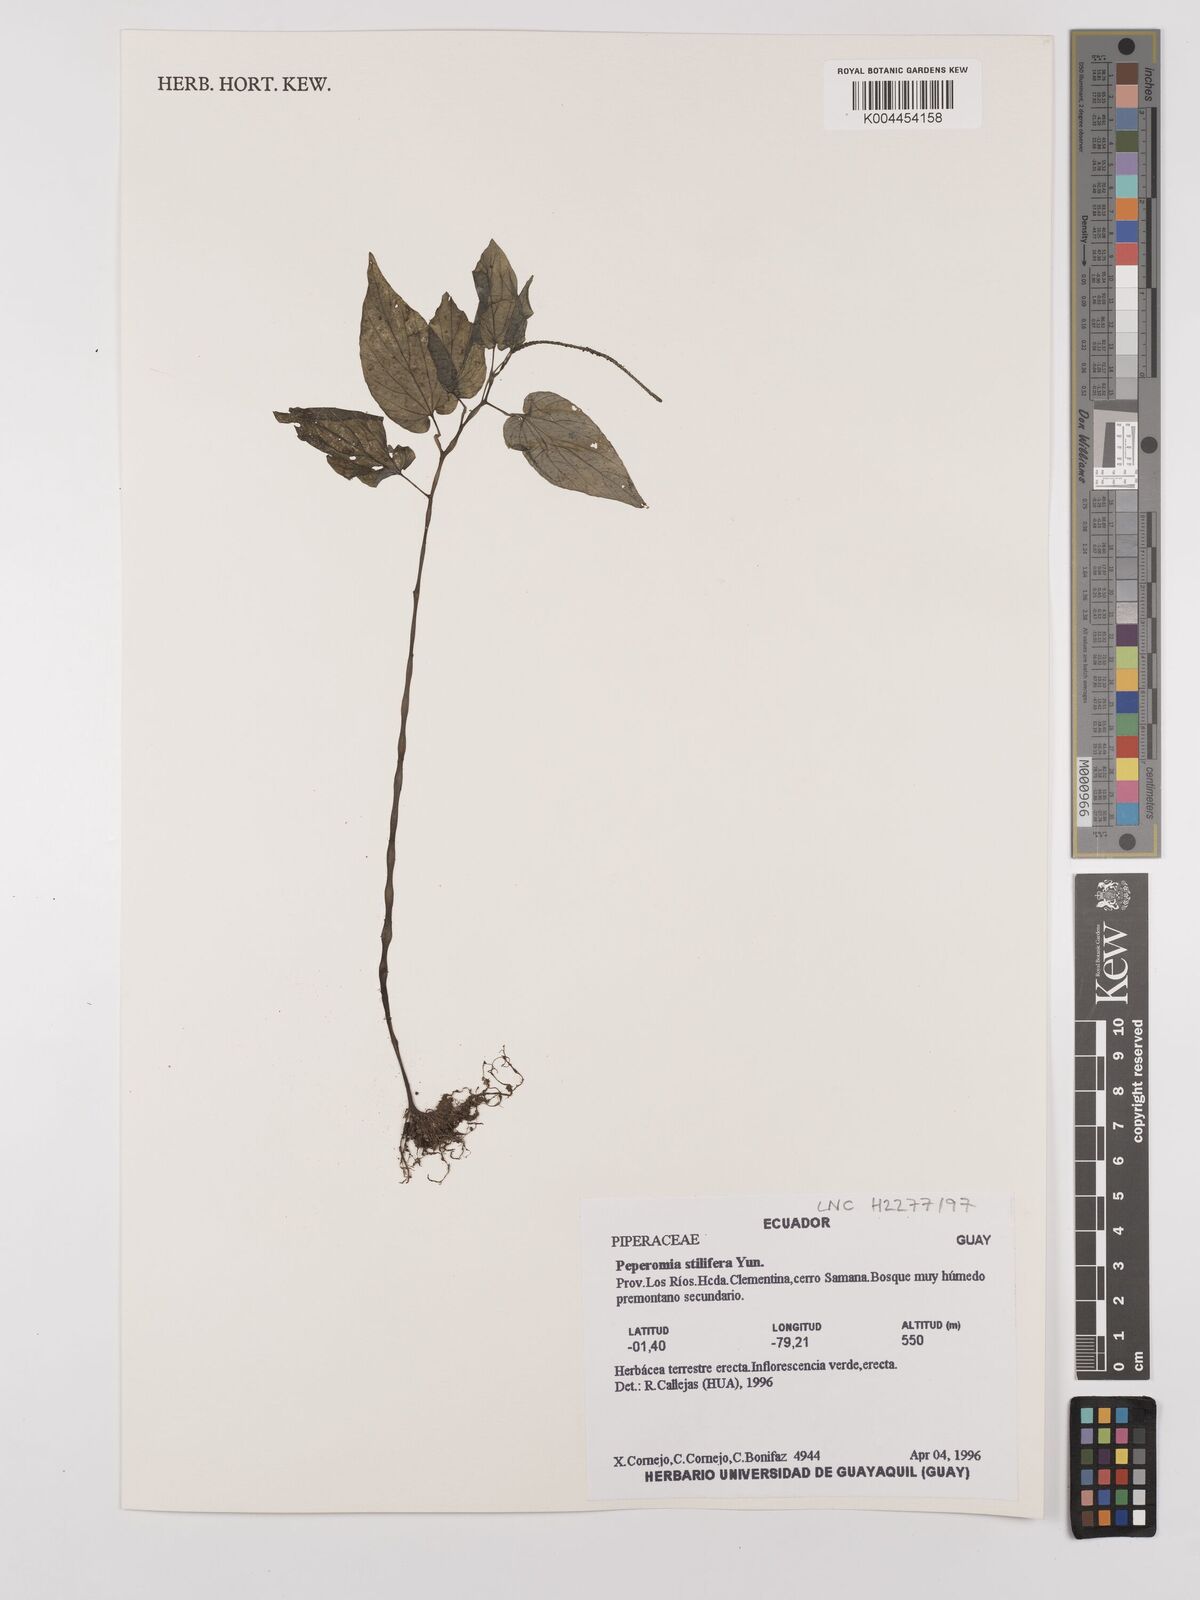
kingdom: Plantae
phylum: Tracheophyta
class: Magnoliopsida
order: Piperales
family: Piperaceae
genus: Peperomia
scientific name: Peperomia stilifera
